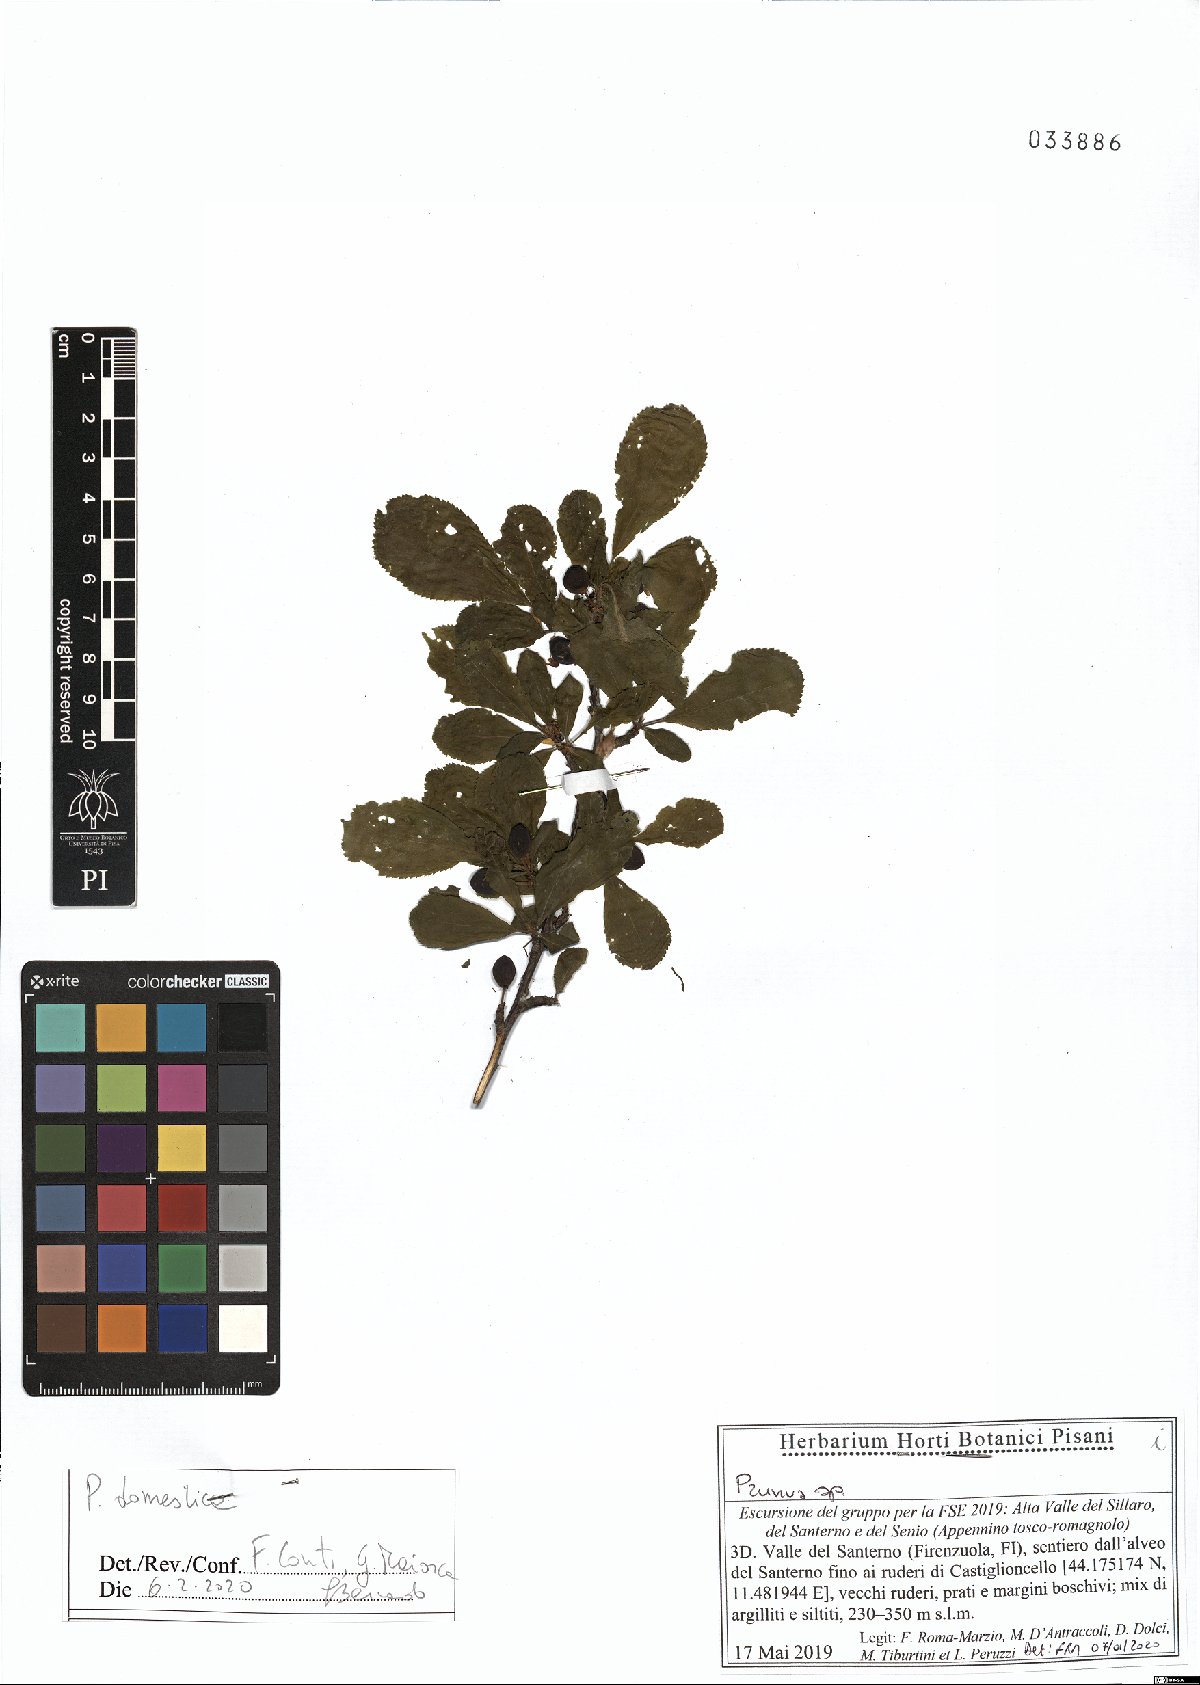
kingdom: Plantae
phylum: Tracheophyta
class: Magnoliopsida
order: Rosales
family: Rosaceae
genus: Prunus
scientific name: Prunus domestica
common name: Wild plum
